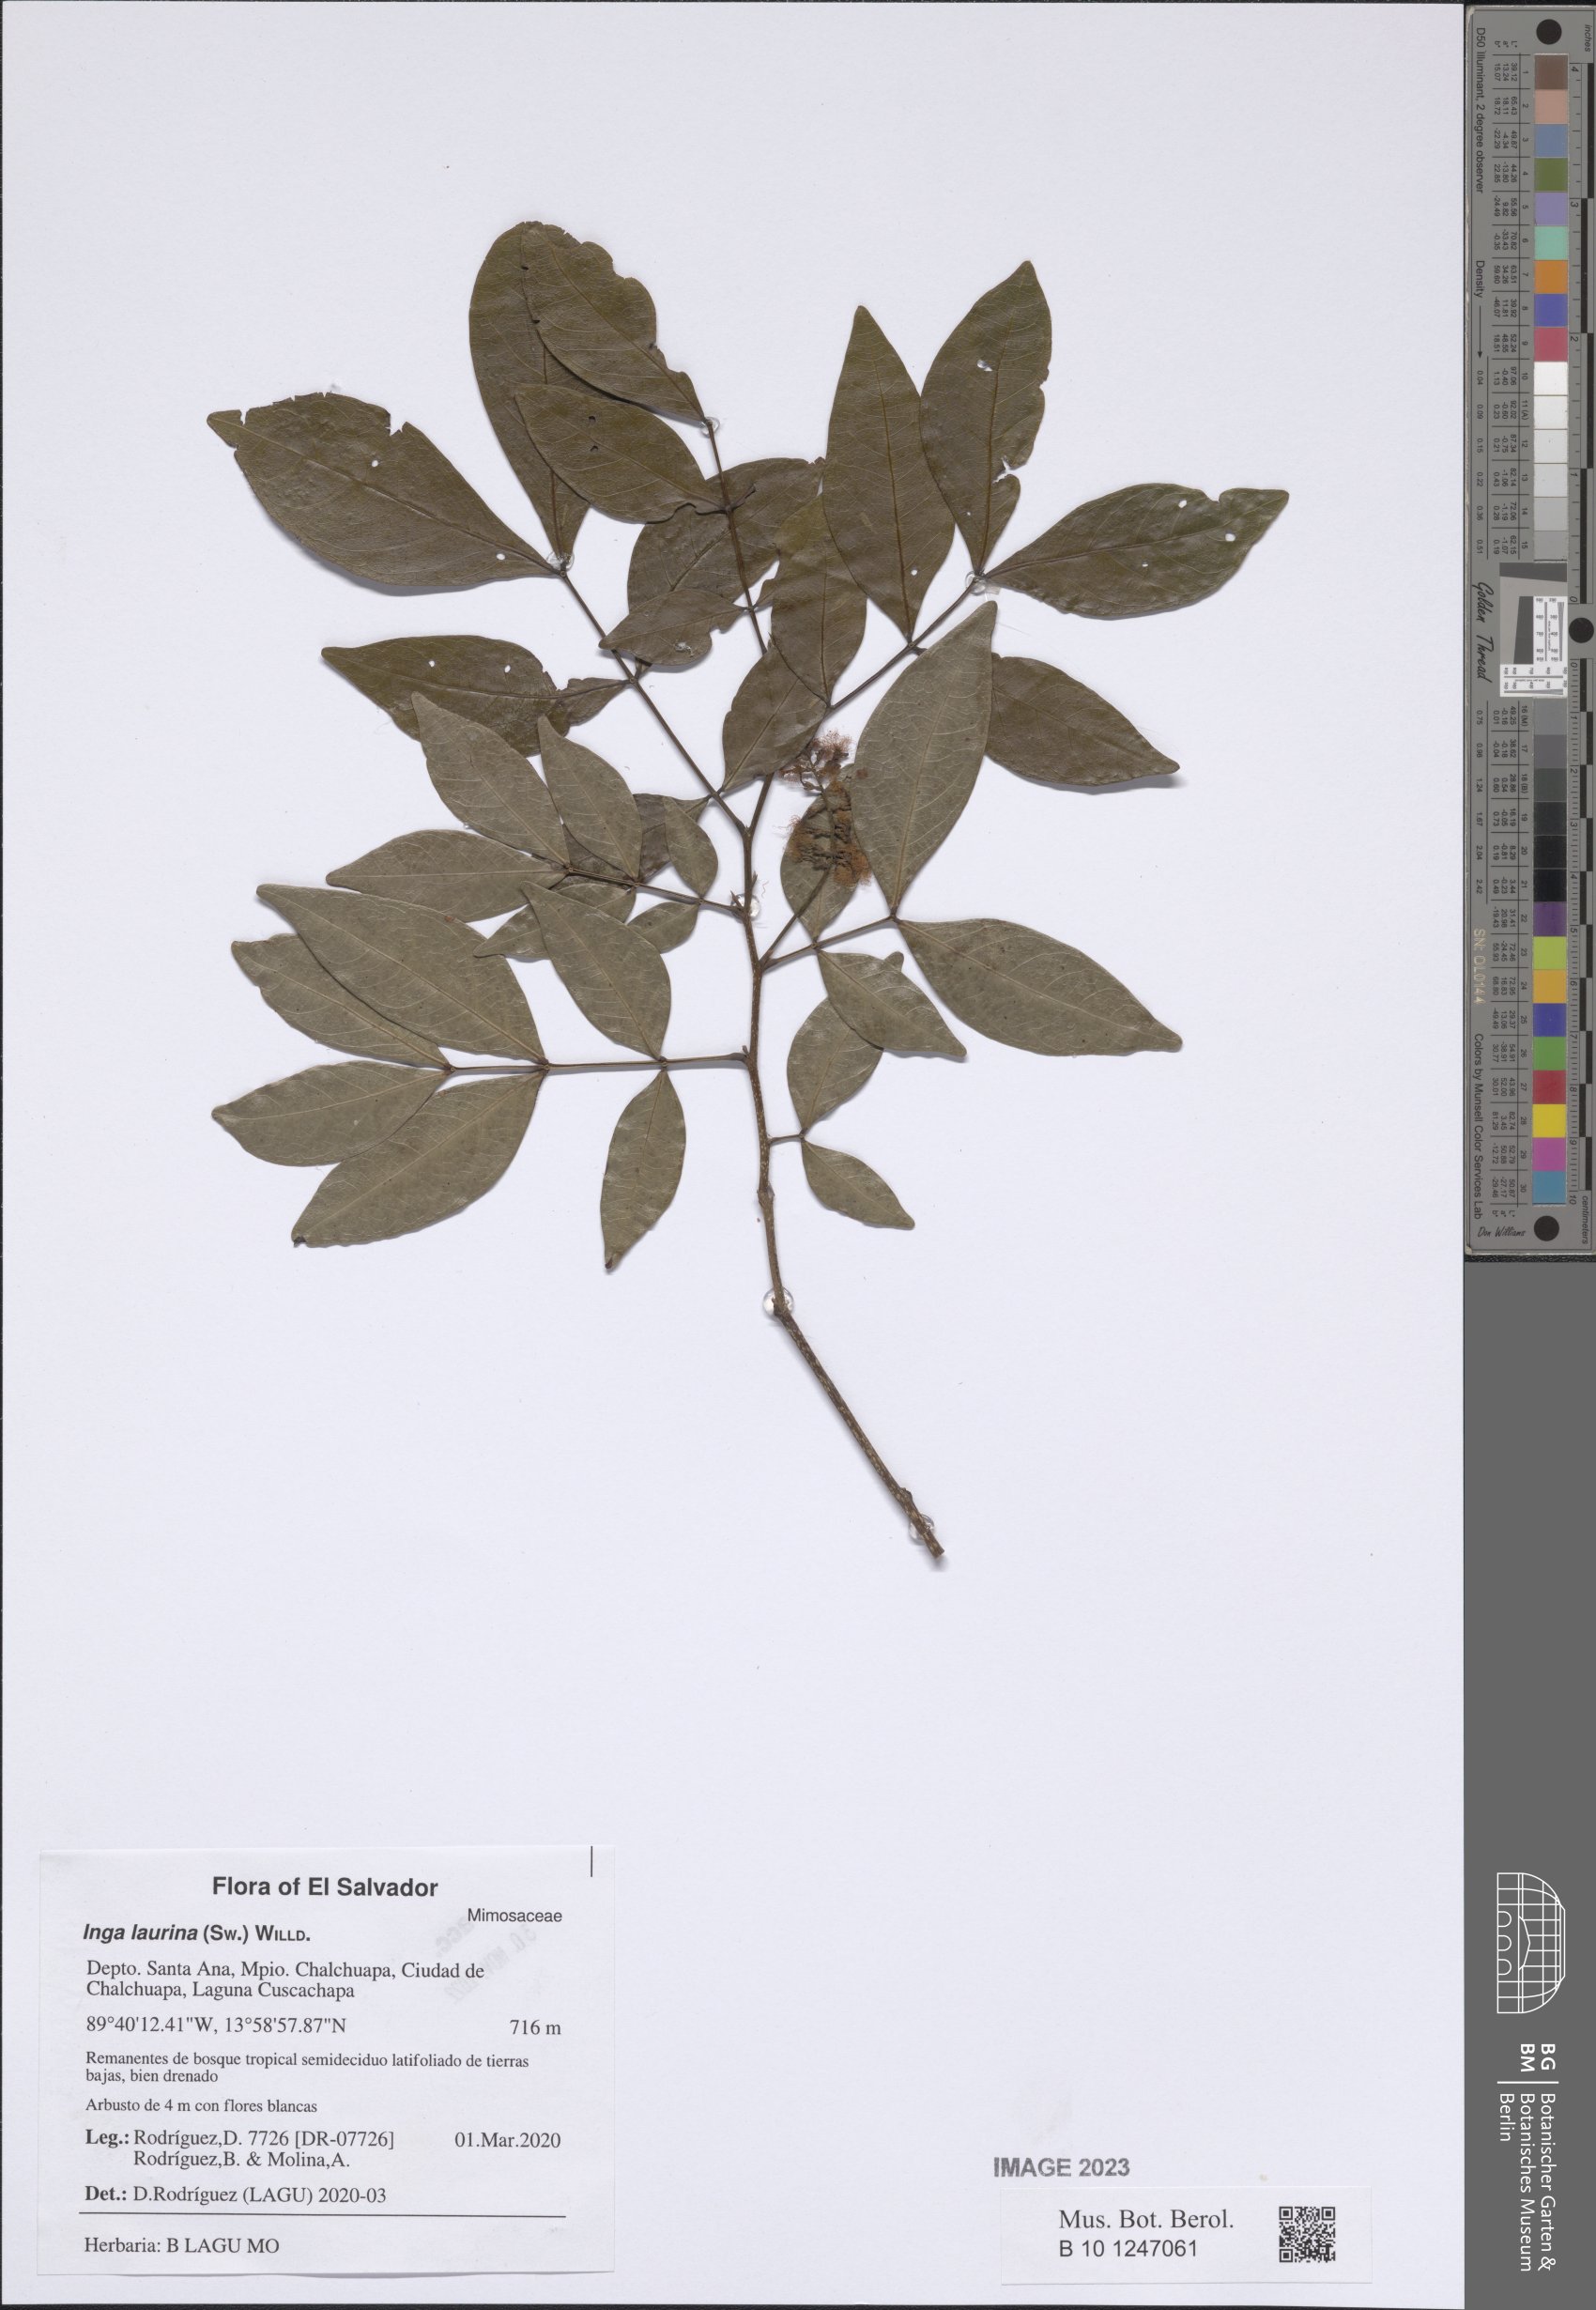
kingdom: Plantae
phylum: Tracheophyta
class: Magnoliopsida
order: Fabales
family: Fabaceae
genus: Inga
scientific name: Inga laurina
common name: Red wood
